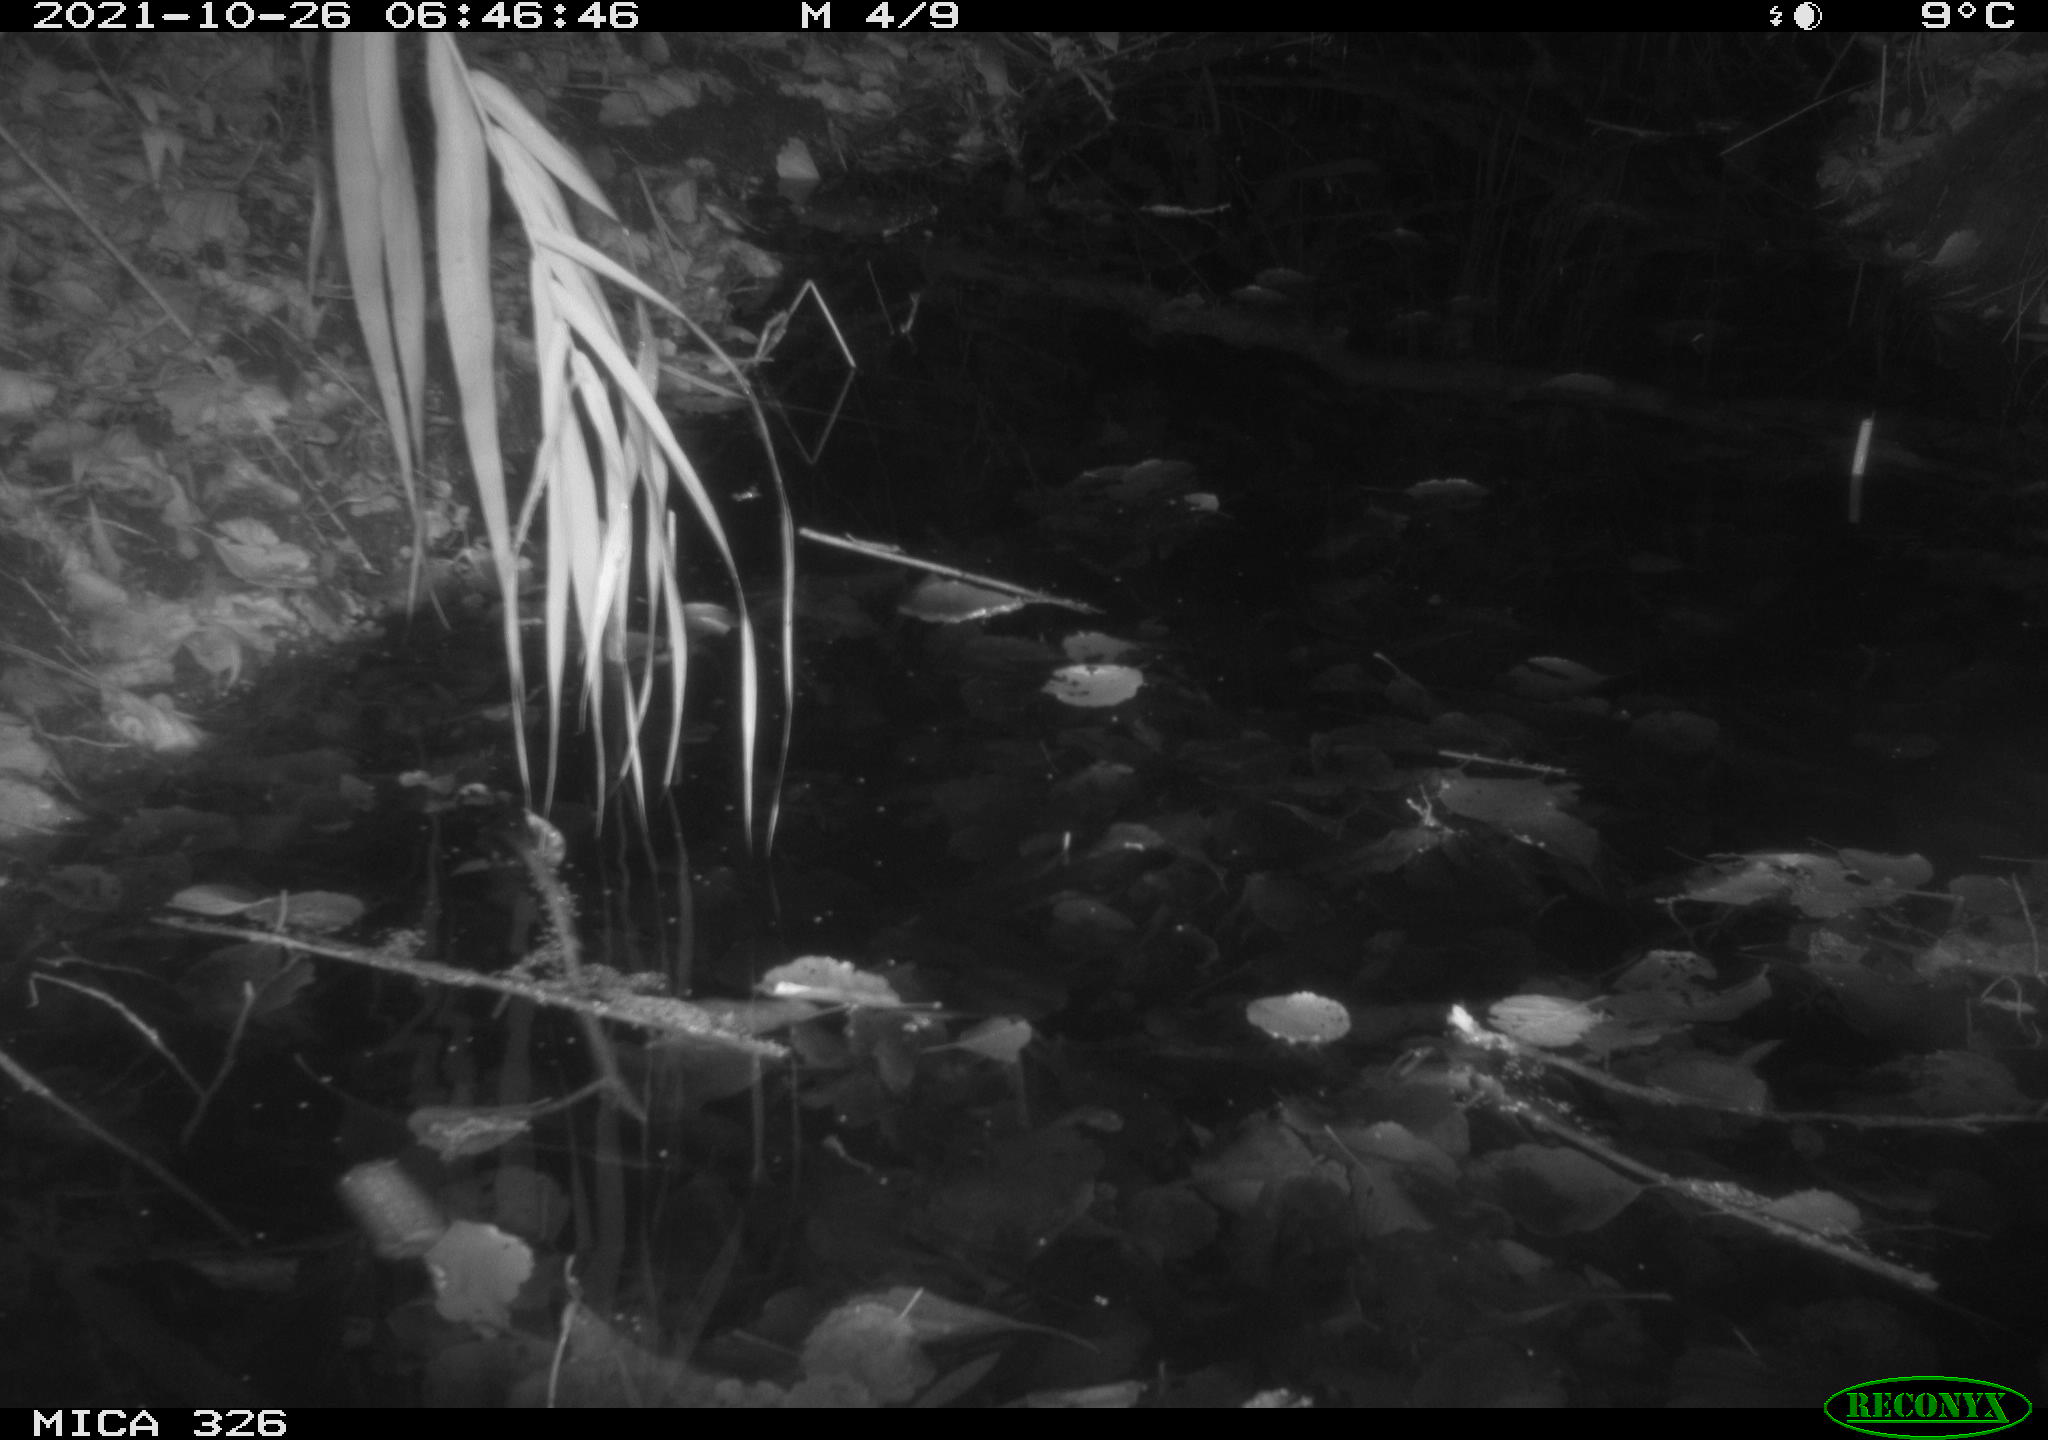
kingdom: Animalia
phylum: Chordata
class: Mammalia
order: Rodentia
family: Muridae
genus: Rattus
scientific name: Rattus norvegicus
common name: Brown rat
